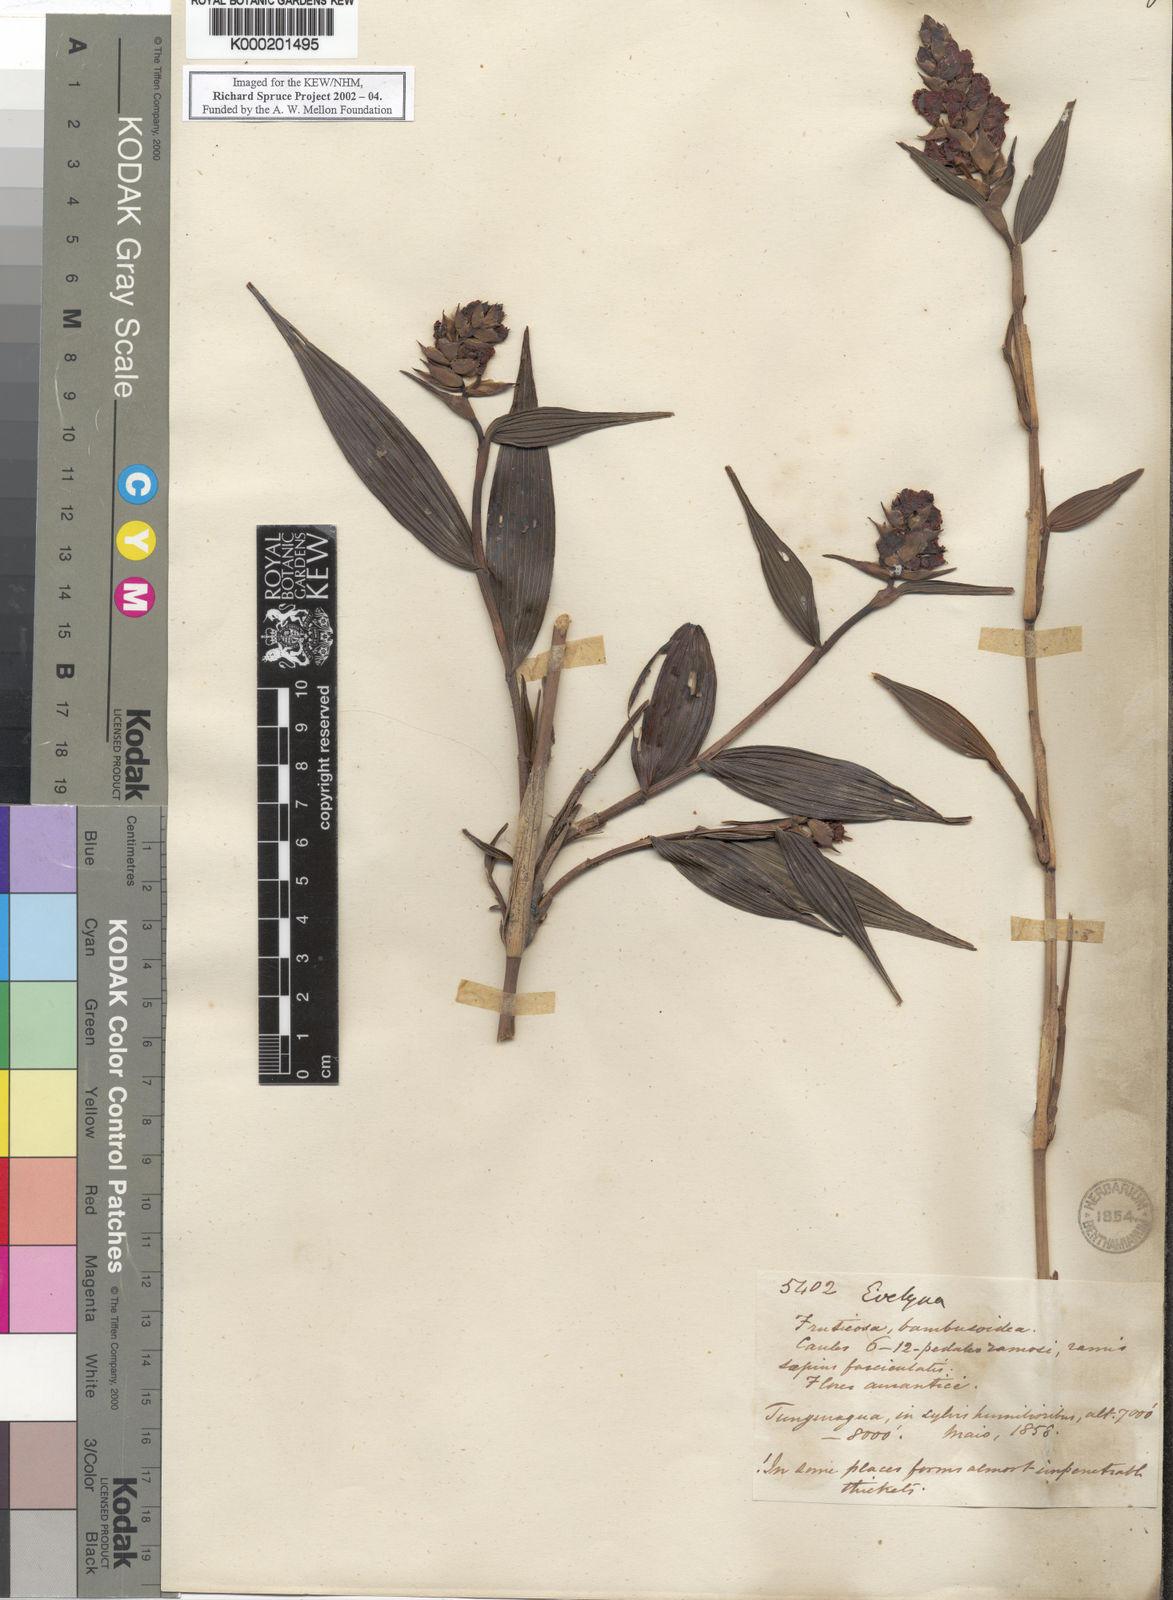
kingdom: Plantae
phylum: Tracheophyta
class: Liliopsida
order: Asparagales
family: Orchidaceae
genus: Elleanthus
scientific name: Elleanthus aurantiacus
